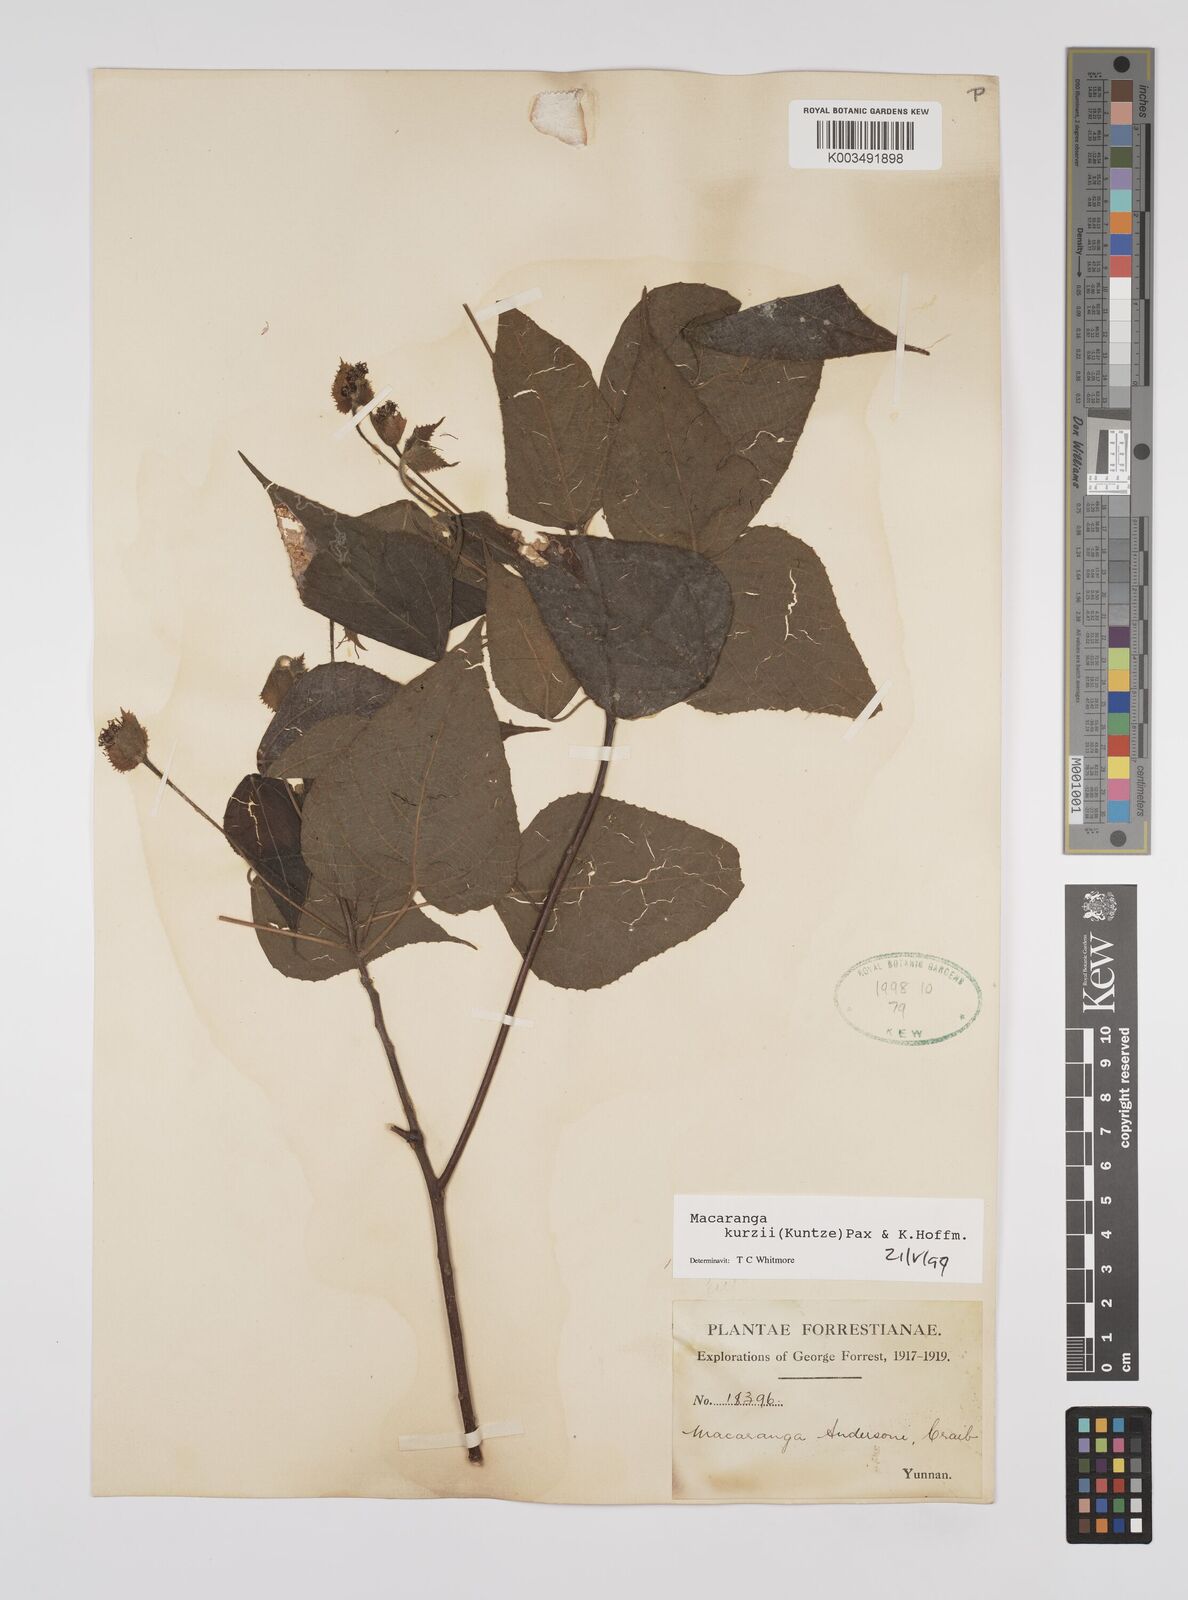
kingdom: Plantae
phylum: Tracheophyta
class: Magnoliopsida
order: Malpighiales
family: Euphorbiaceae
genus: Macaranga
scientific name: Macaranga kurzii
